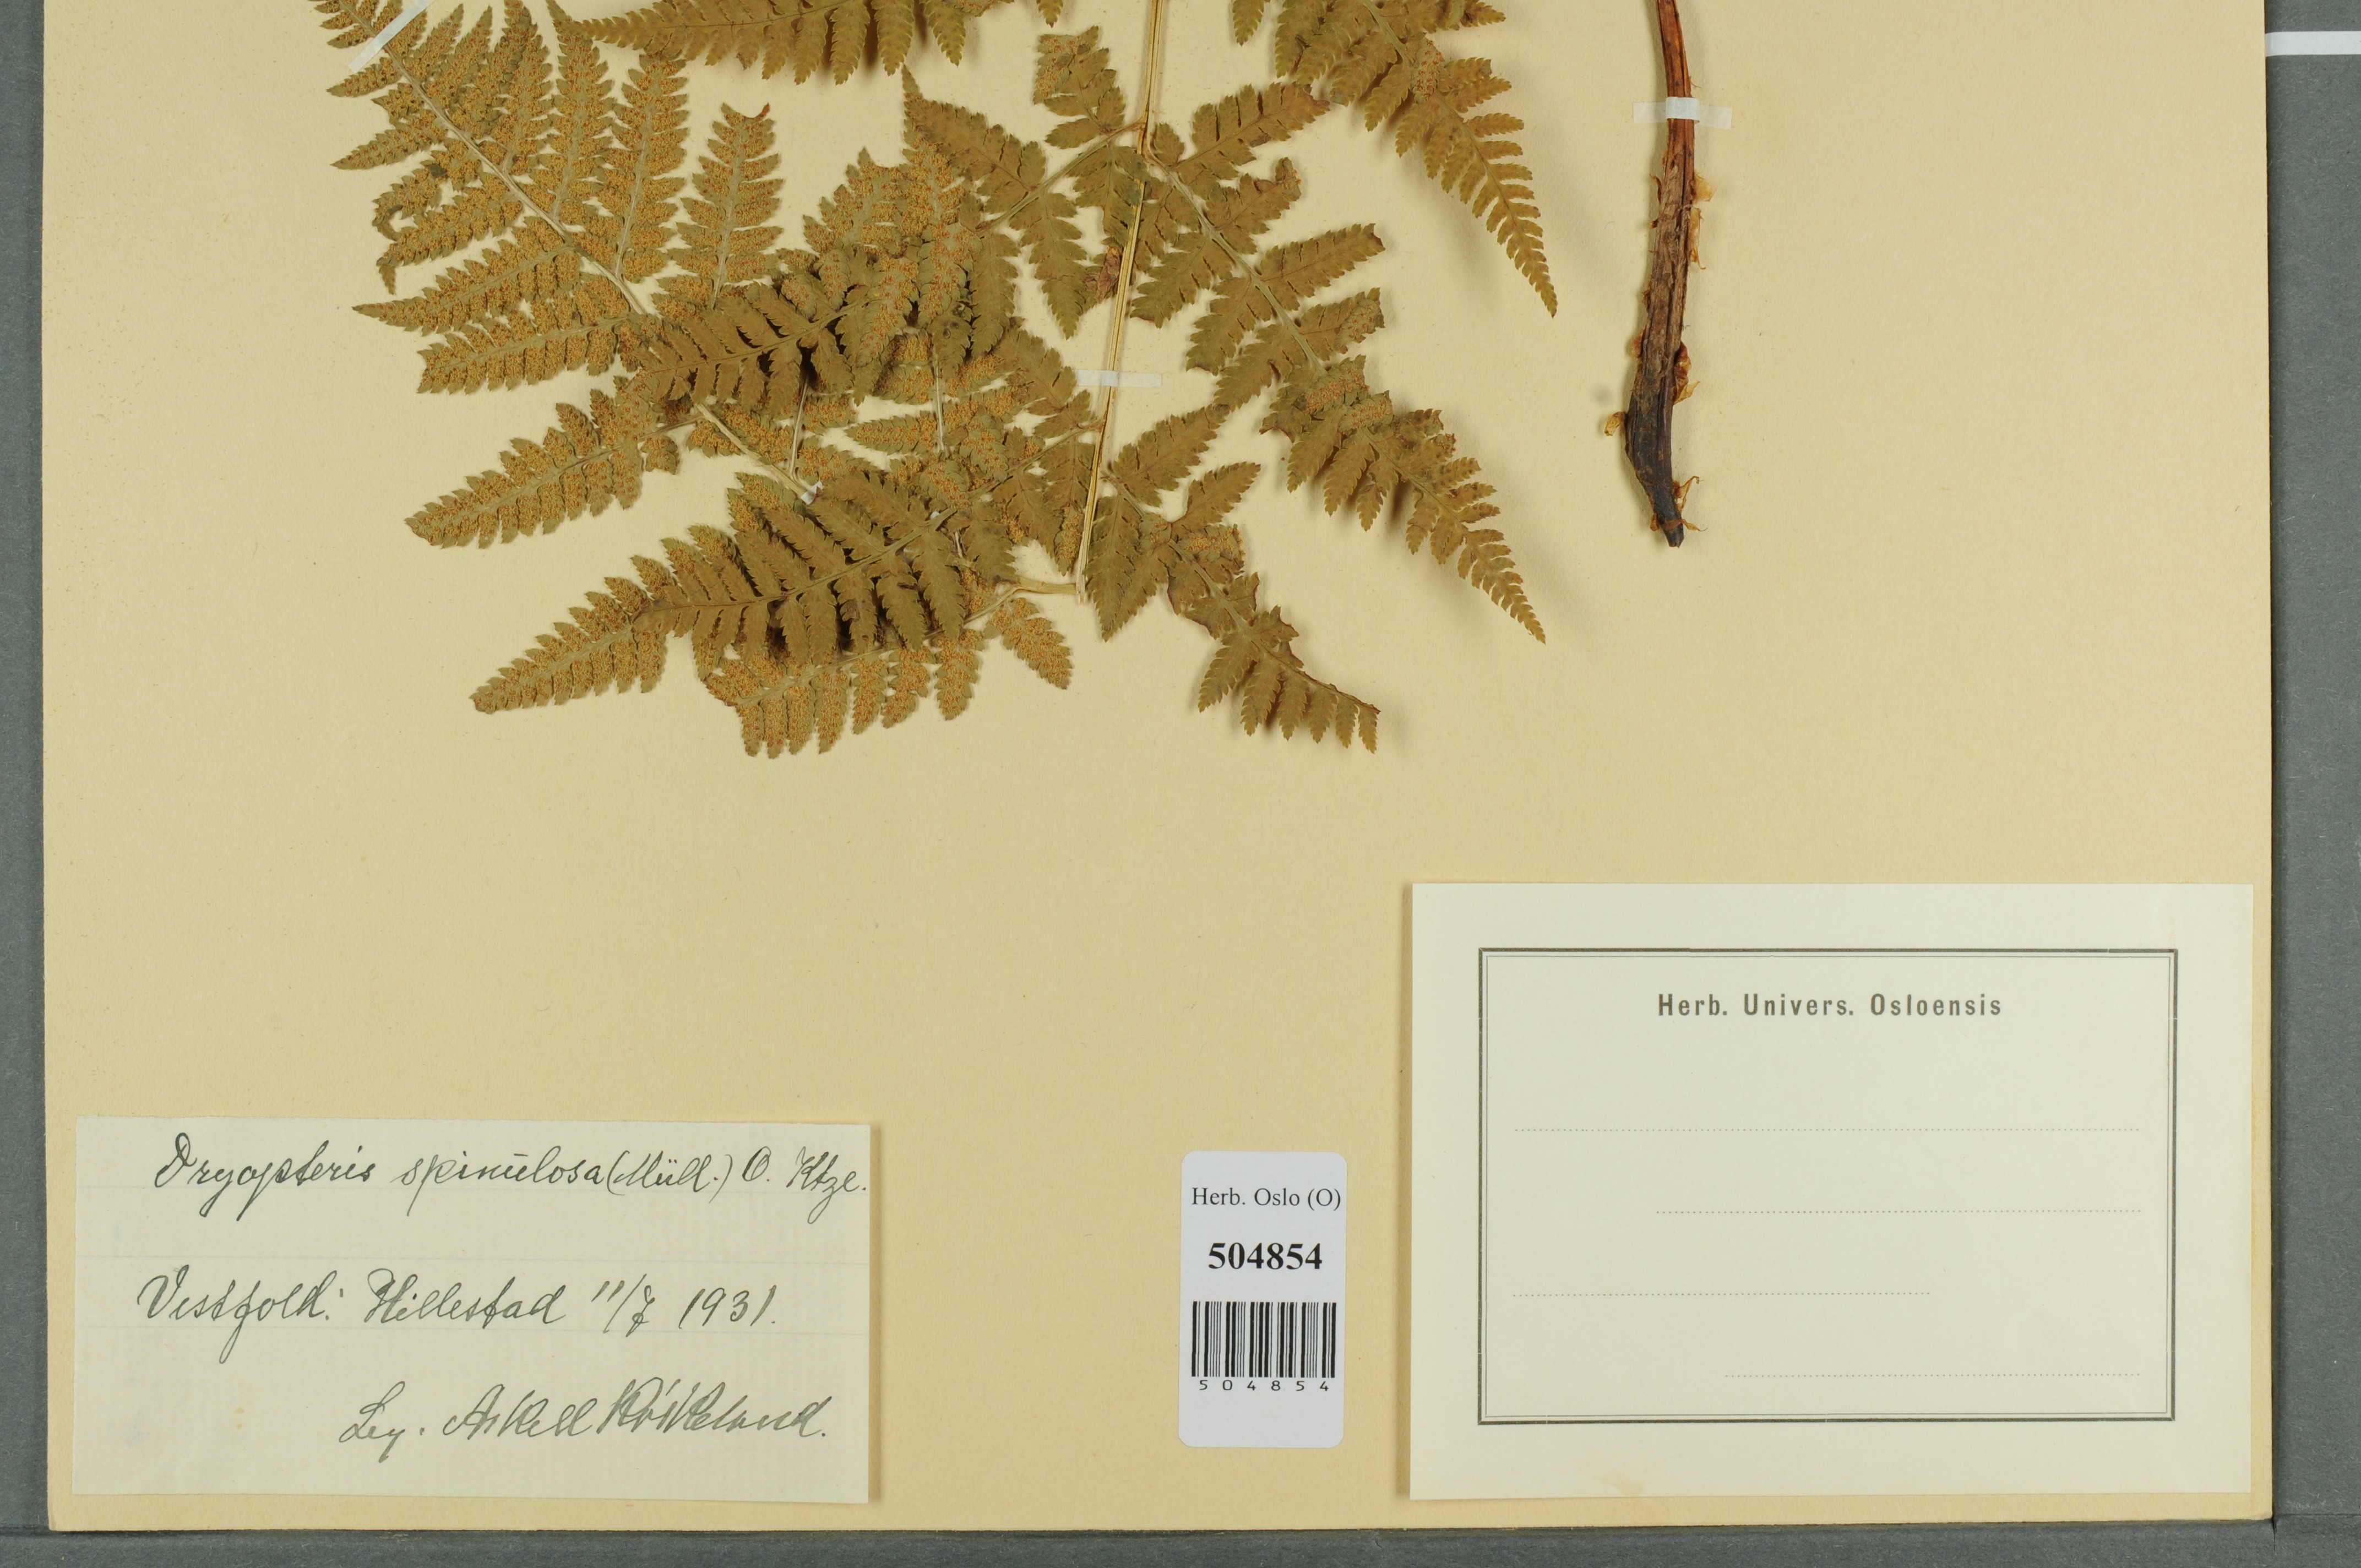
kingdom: Plantae
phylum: Tracheophyta
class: Polypodiopsida
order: Polypodiales
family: Dryopteridaceae
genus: Dryopteris
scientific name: Dryopteris carthusiana
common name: Narrow buckler-fern
